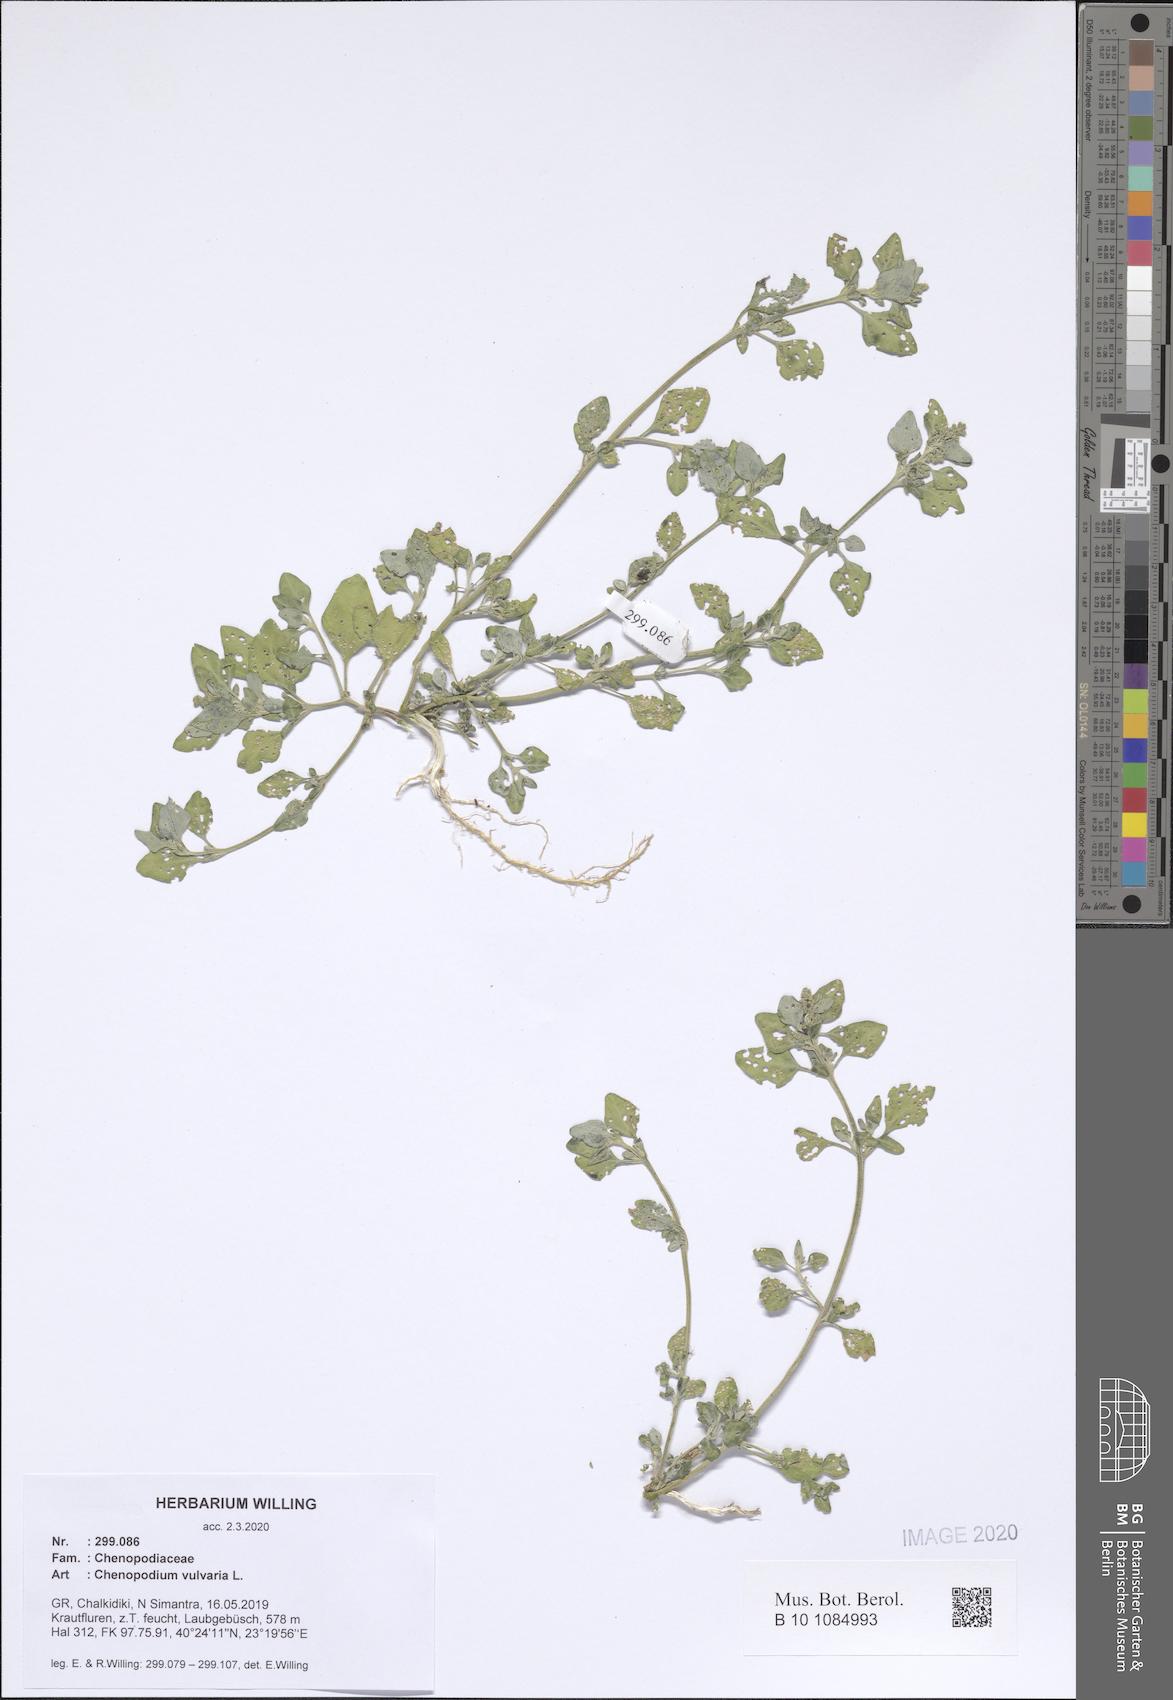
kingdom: Plantae
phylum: Tracheophyta
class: Magnoliopsida
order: Caryophyllales
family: Amaranthaceae
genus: Chenopodium
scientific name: Chenopodium vulvaria
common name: Stinking goosefoot
